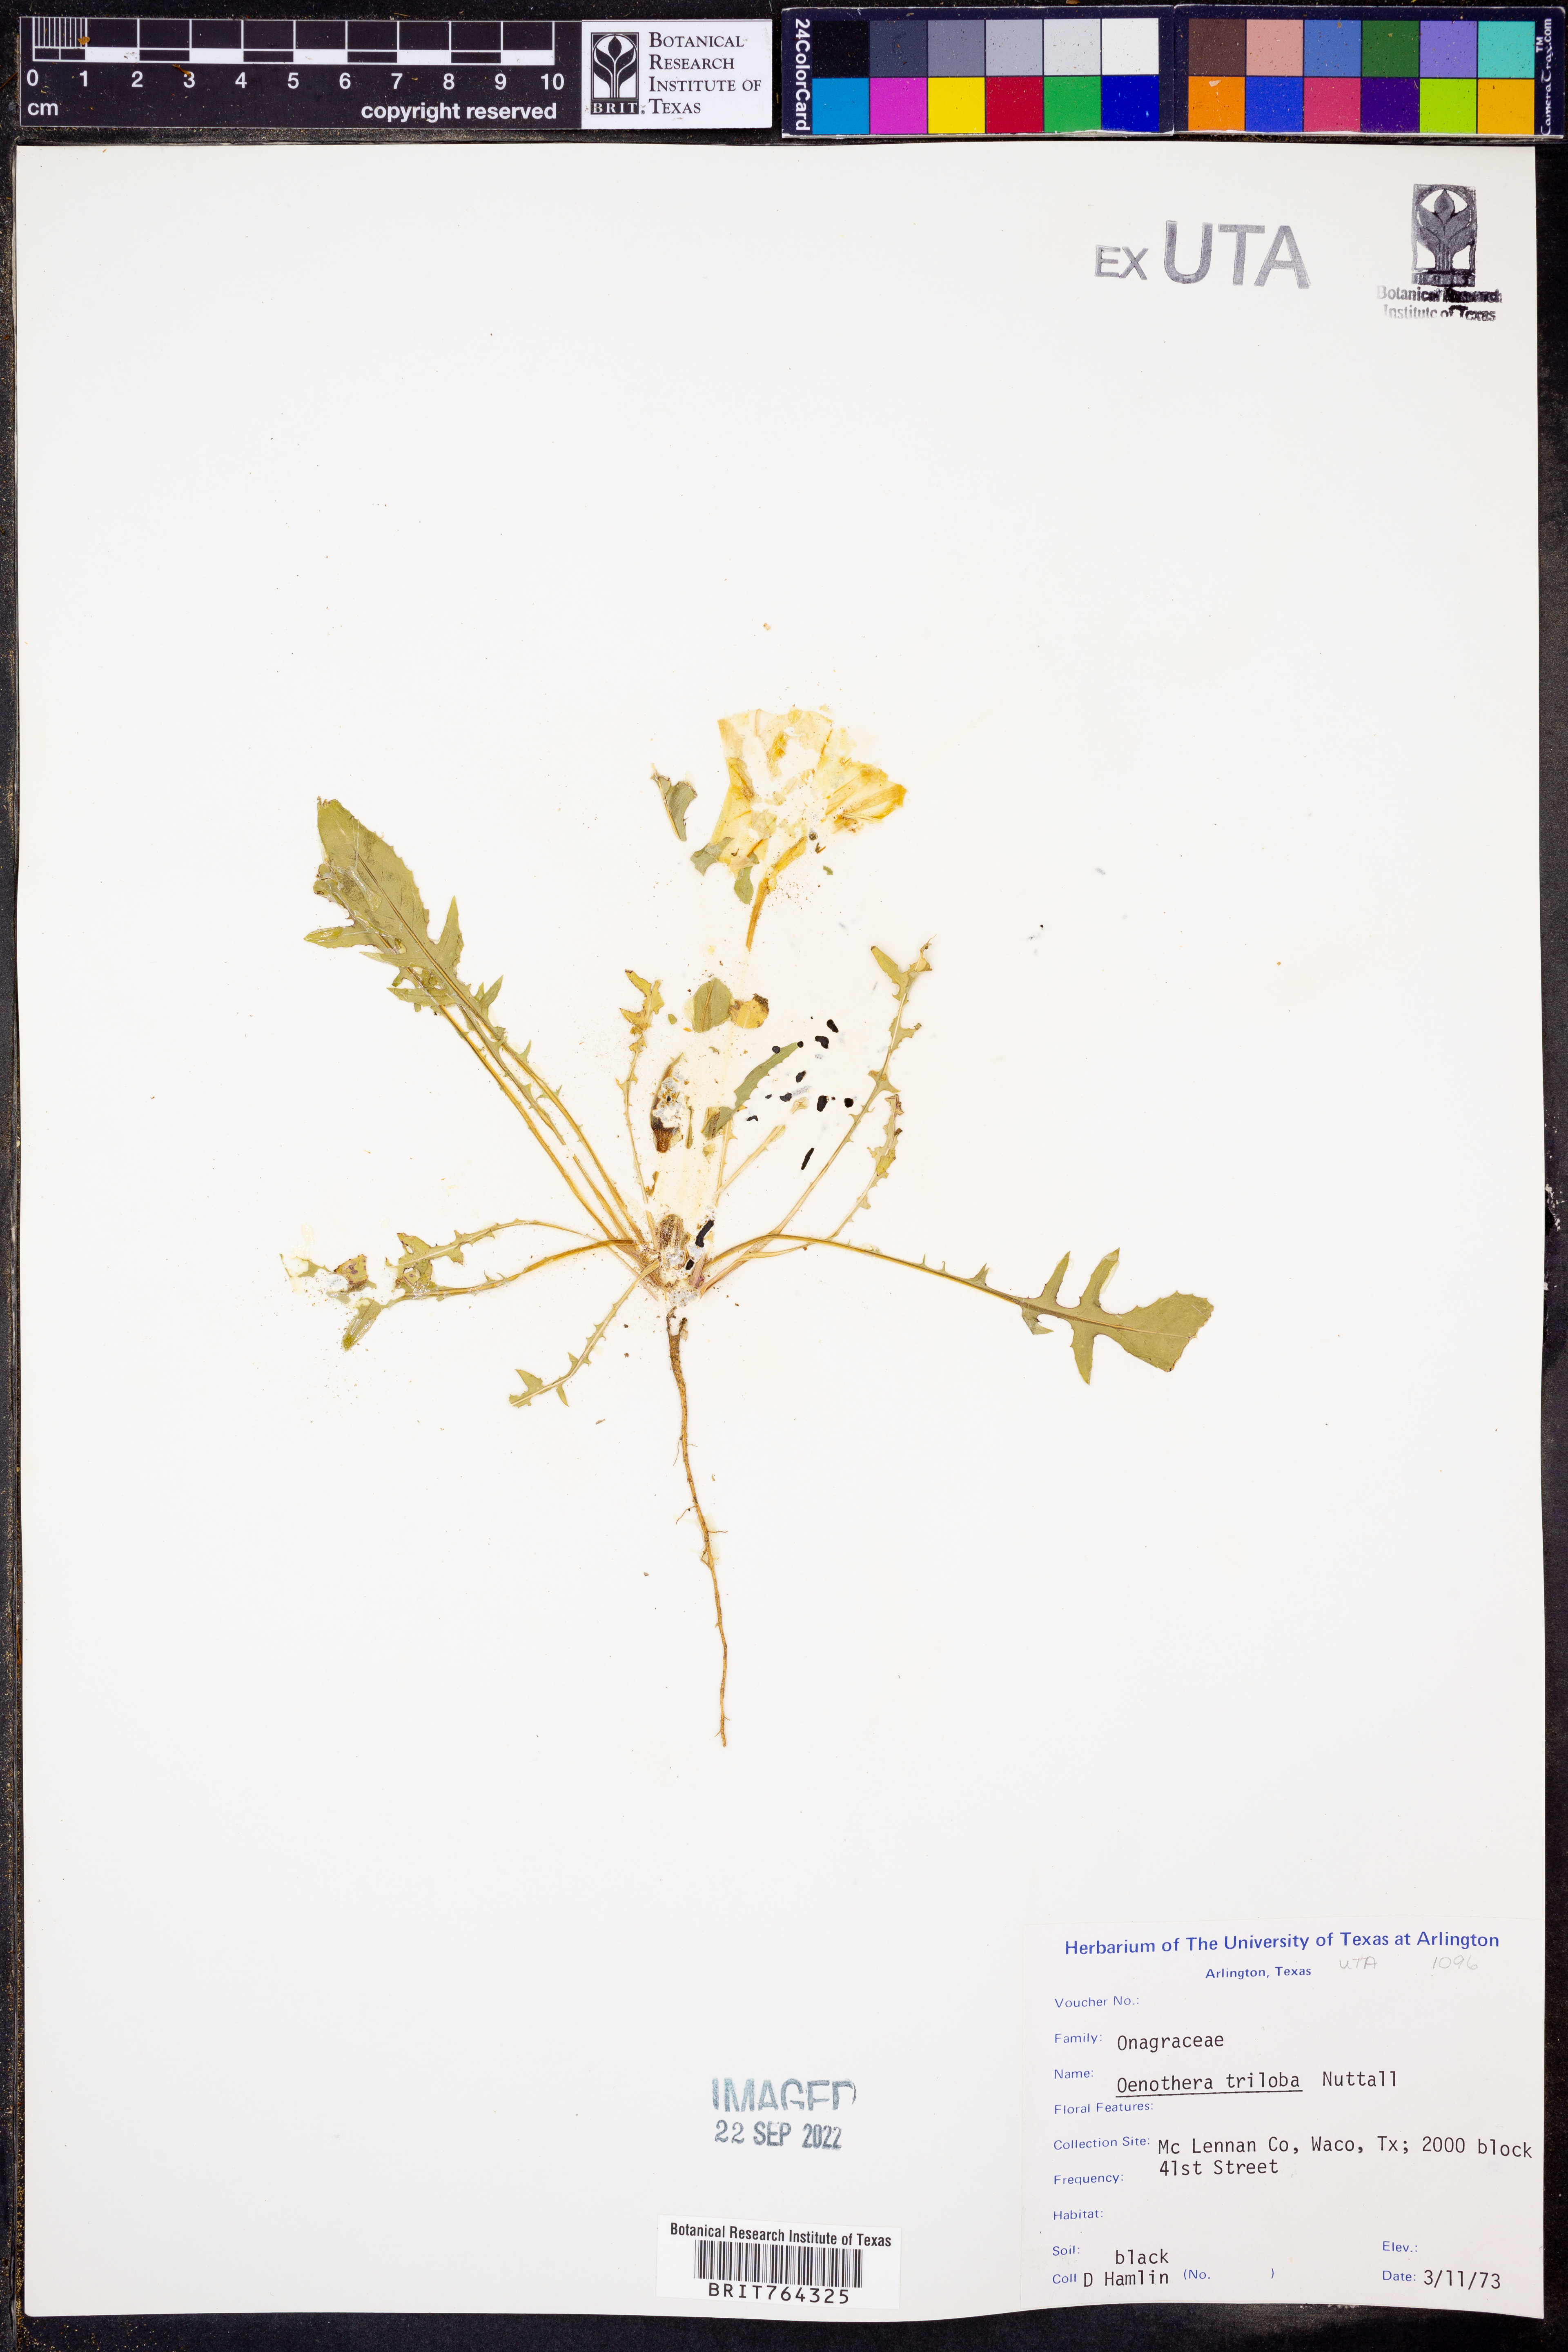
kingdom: Plantae
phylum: Tracheophyta
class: Magnoliopsida
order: Myrtales
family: Onagraceae
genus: Oenothera
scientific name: Oenothera triloba
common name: Sessile evening-primrose
